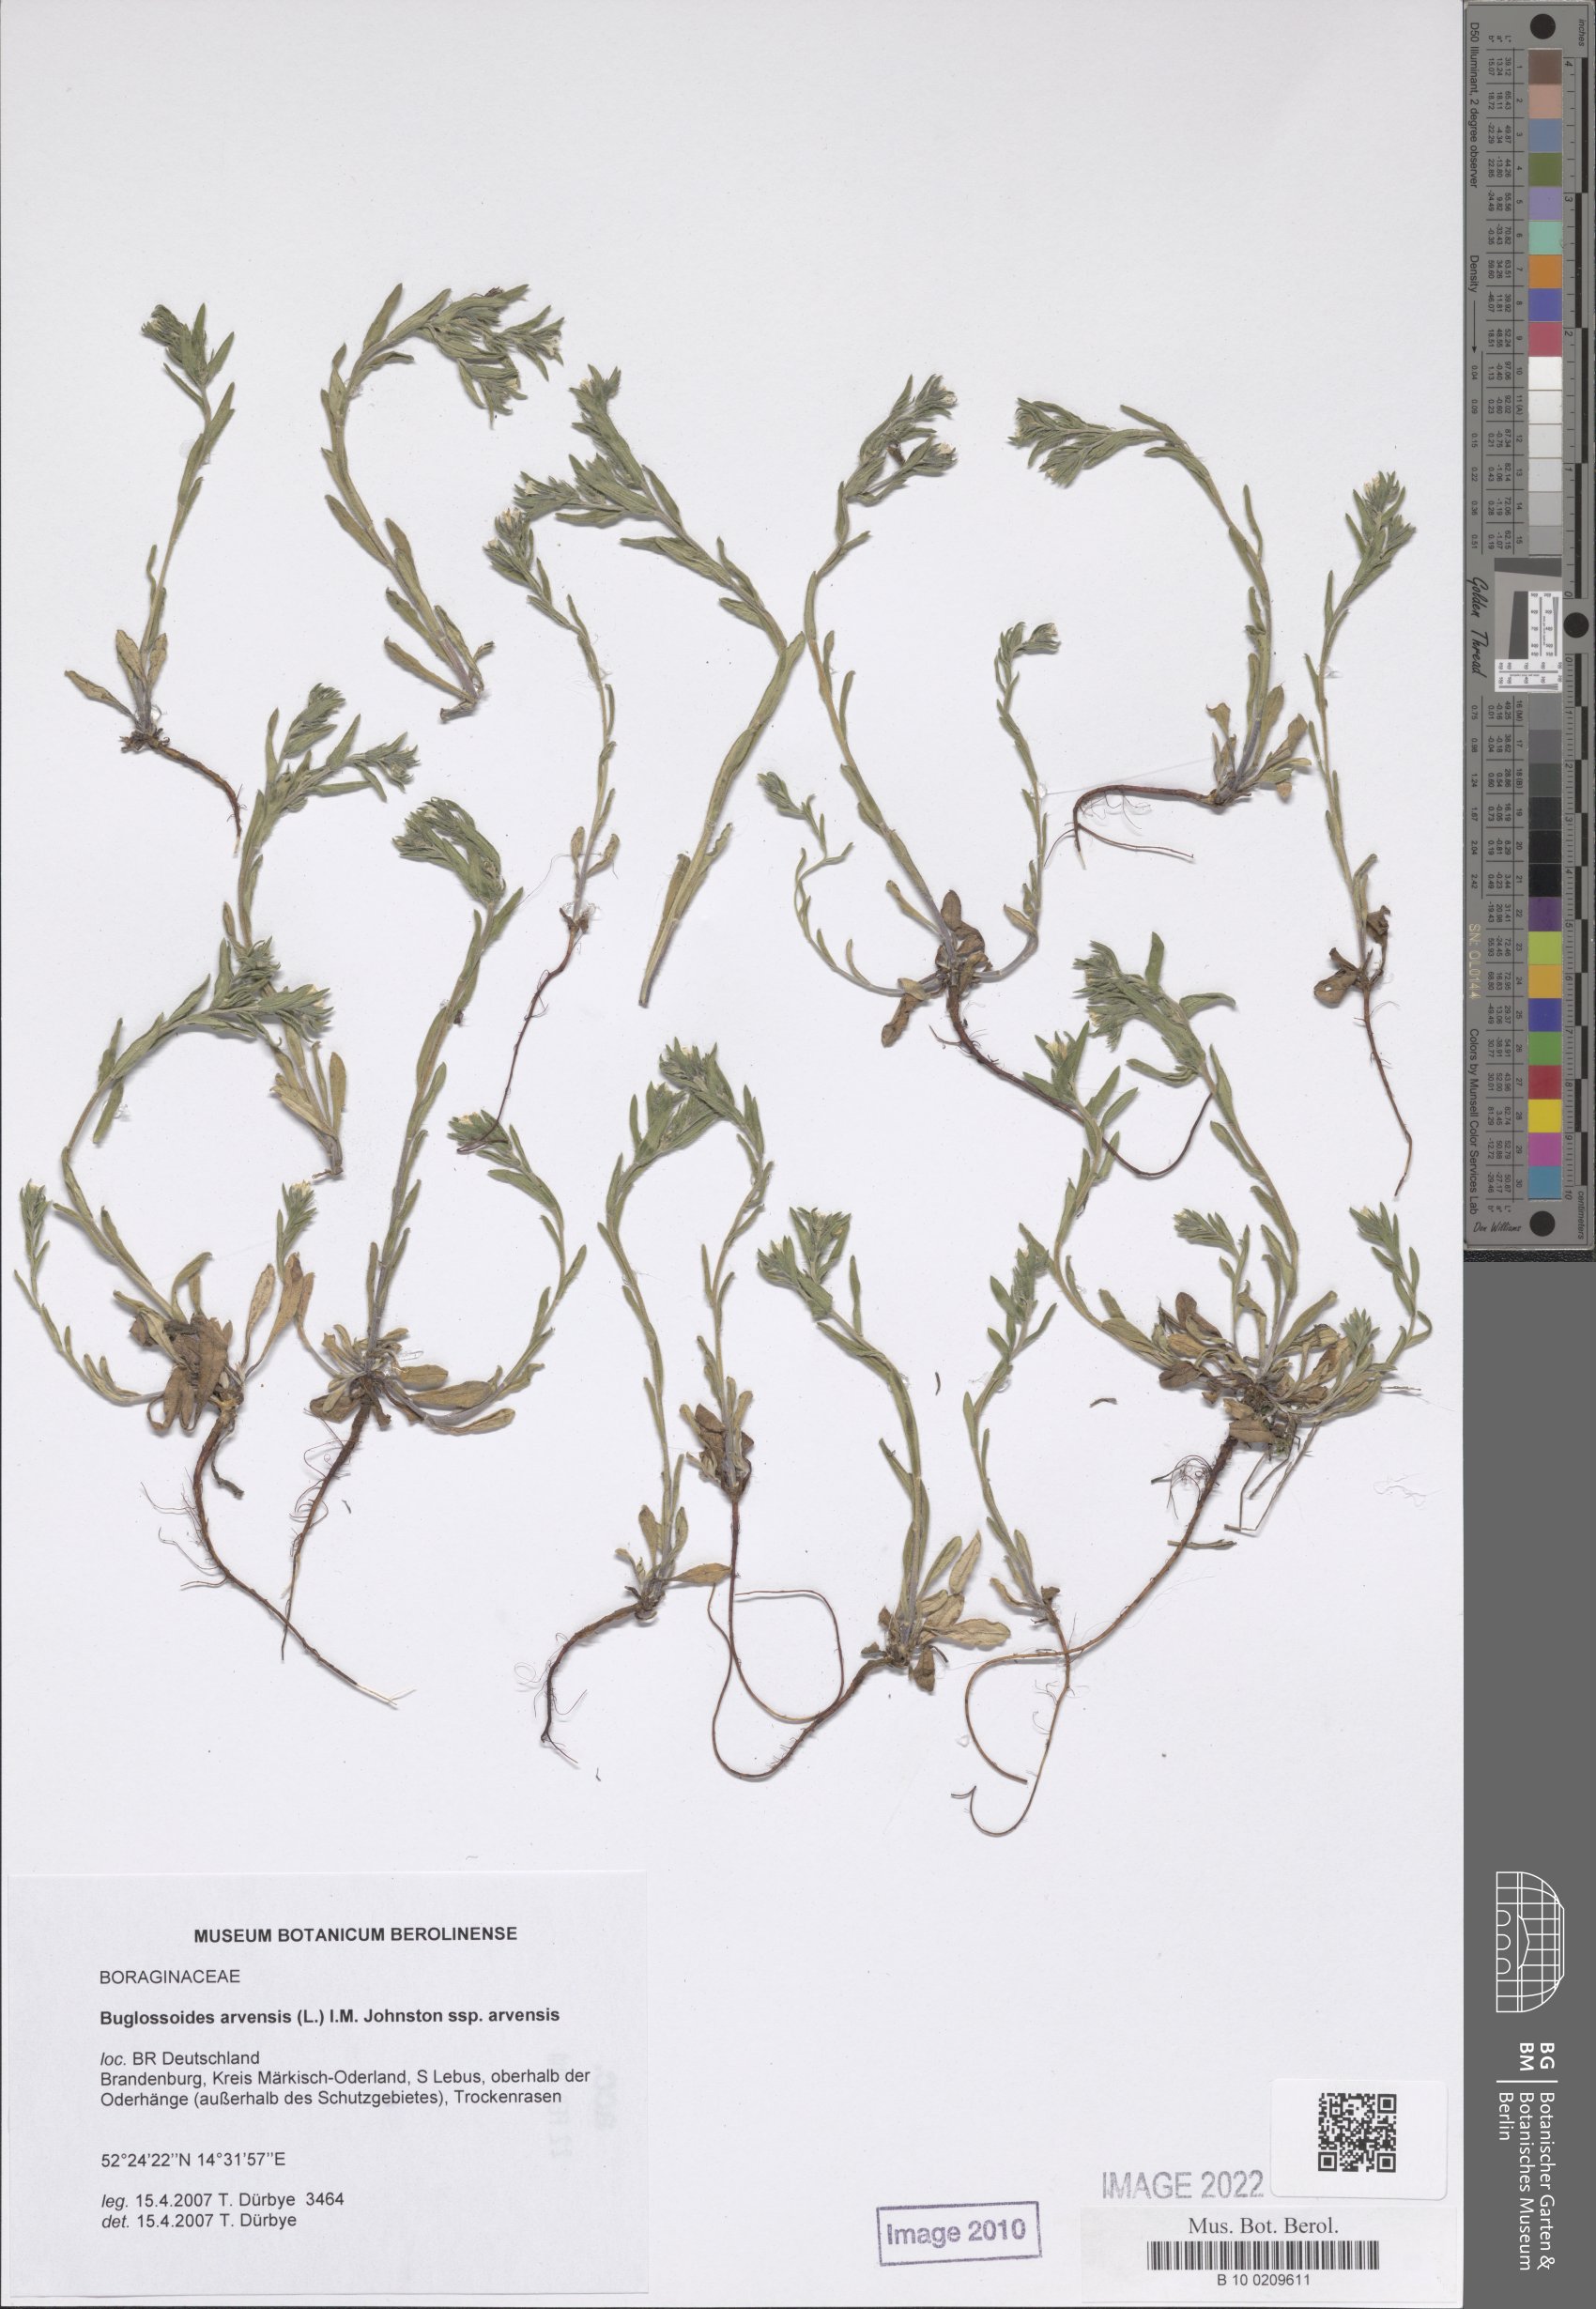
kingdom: Plantae
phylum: Tracheophyta
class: Magnoliopsida
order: Boraginales
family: Boraginaceae
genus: Buglossoides
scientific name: Buglossoides arvensis
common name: Corn gromwell
